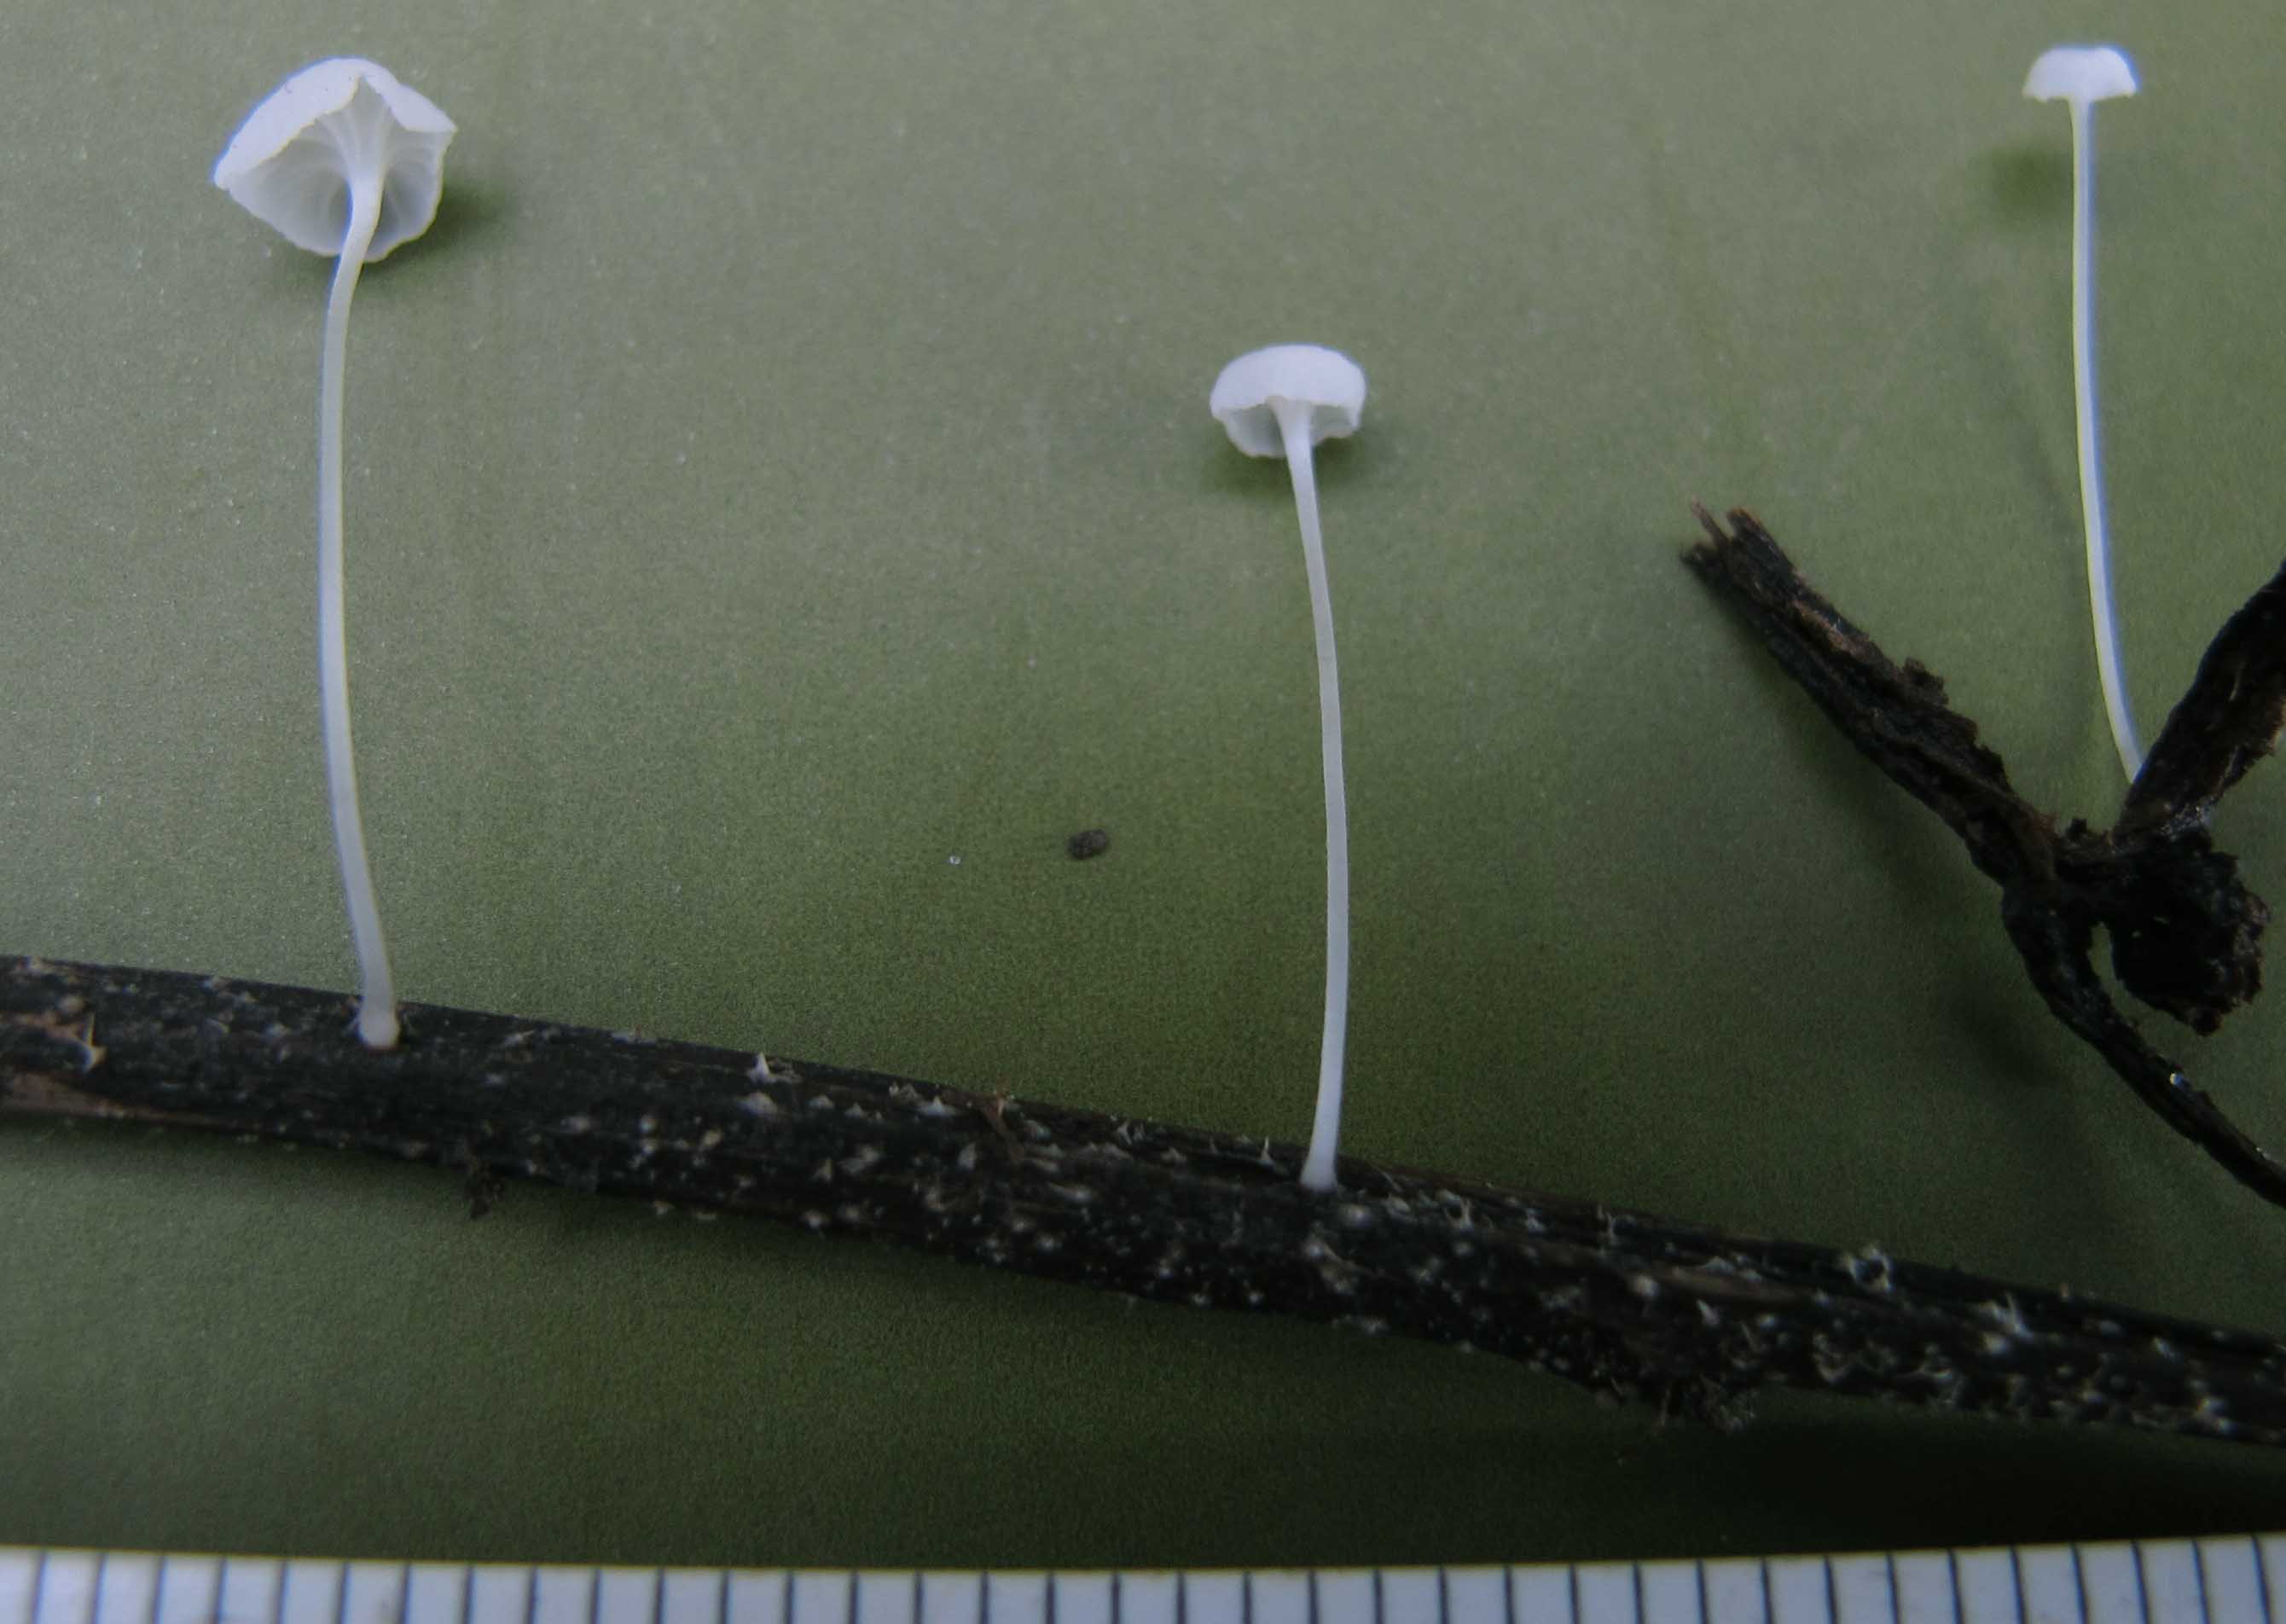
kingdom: Fungi
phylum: Basidiomycota
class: Agaricomycetes
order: Agaricales
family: Mycenaceae
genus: Hemimycena
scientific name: Hemimycena subtilis
